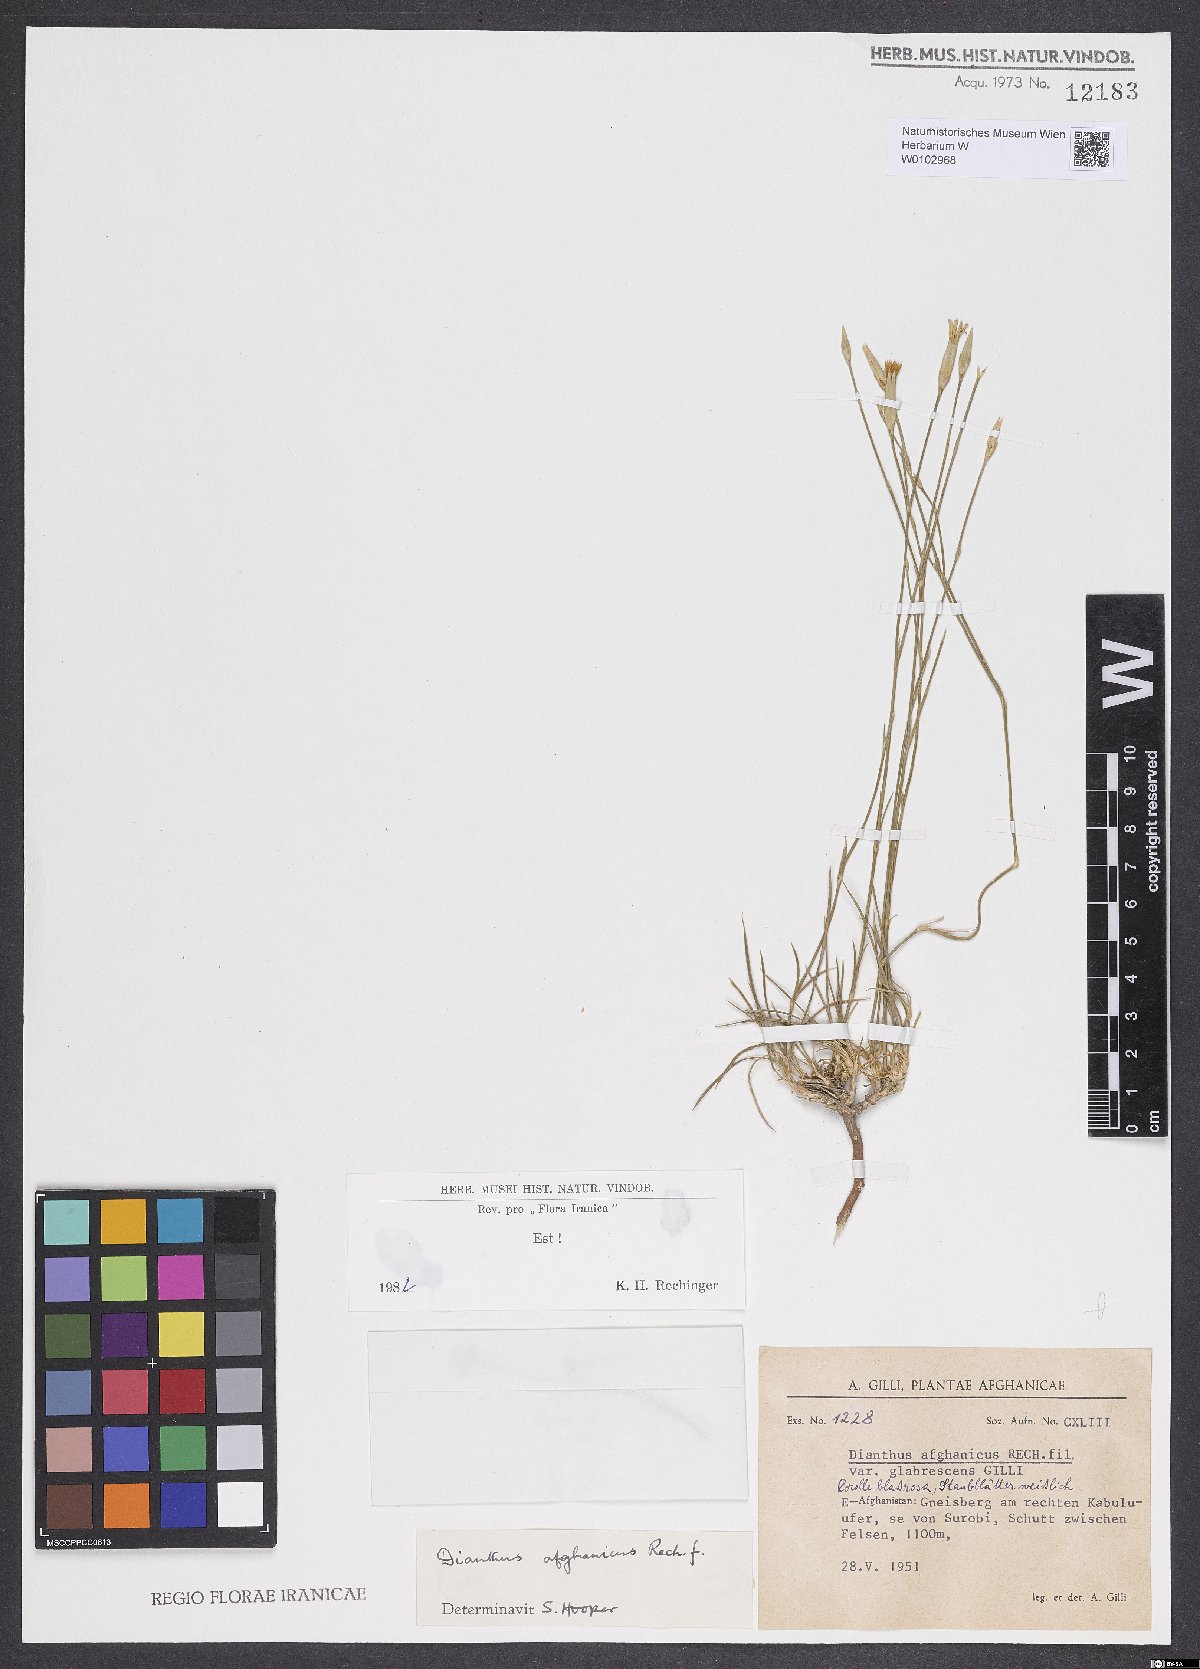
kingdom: Plantae
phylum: Tracheophyta
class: Magnoliopsida
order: Caryophyllales
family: Caryophyllaceae
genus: Dianthus
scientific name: Dianthus afghanicus
